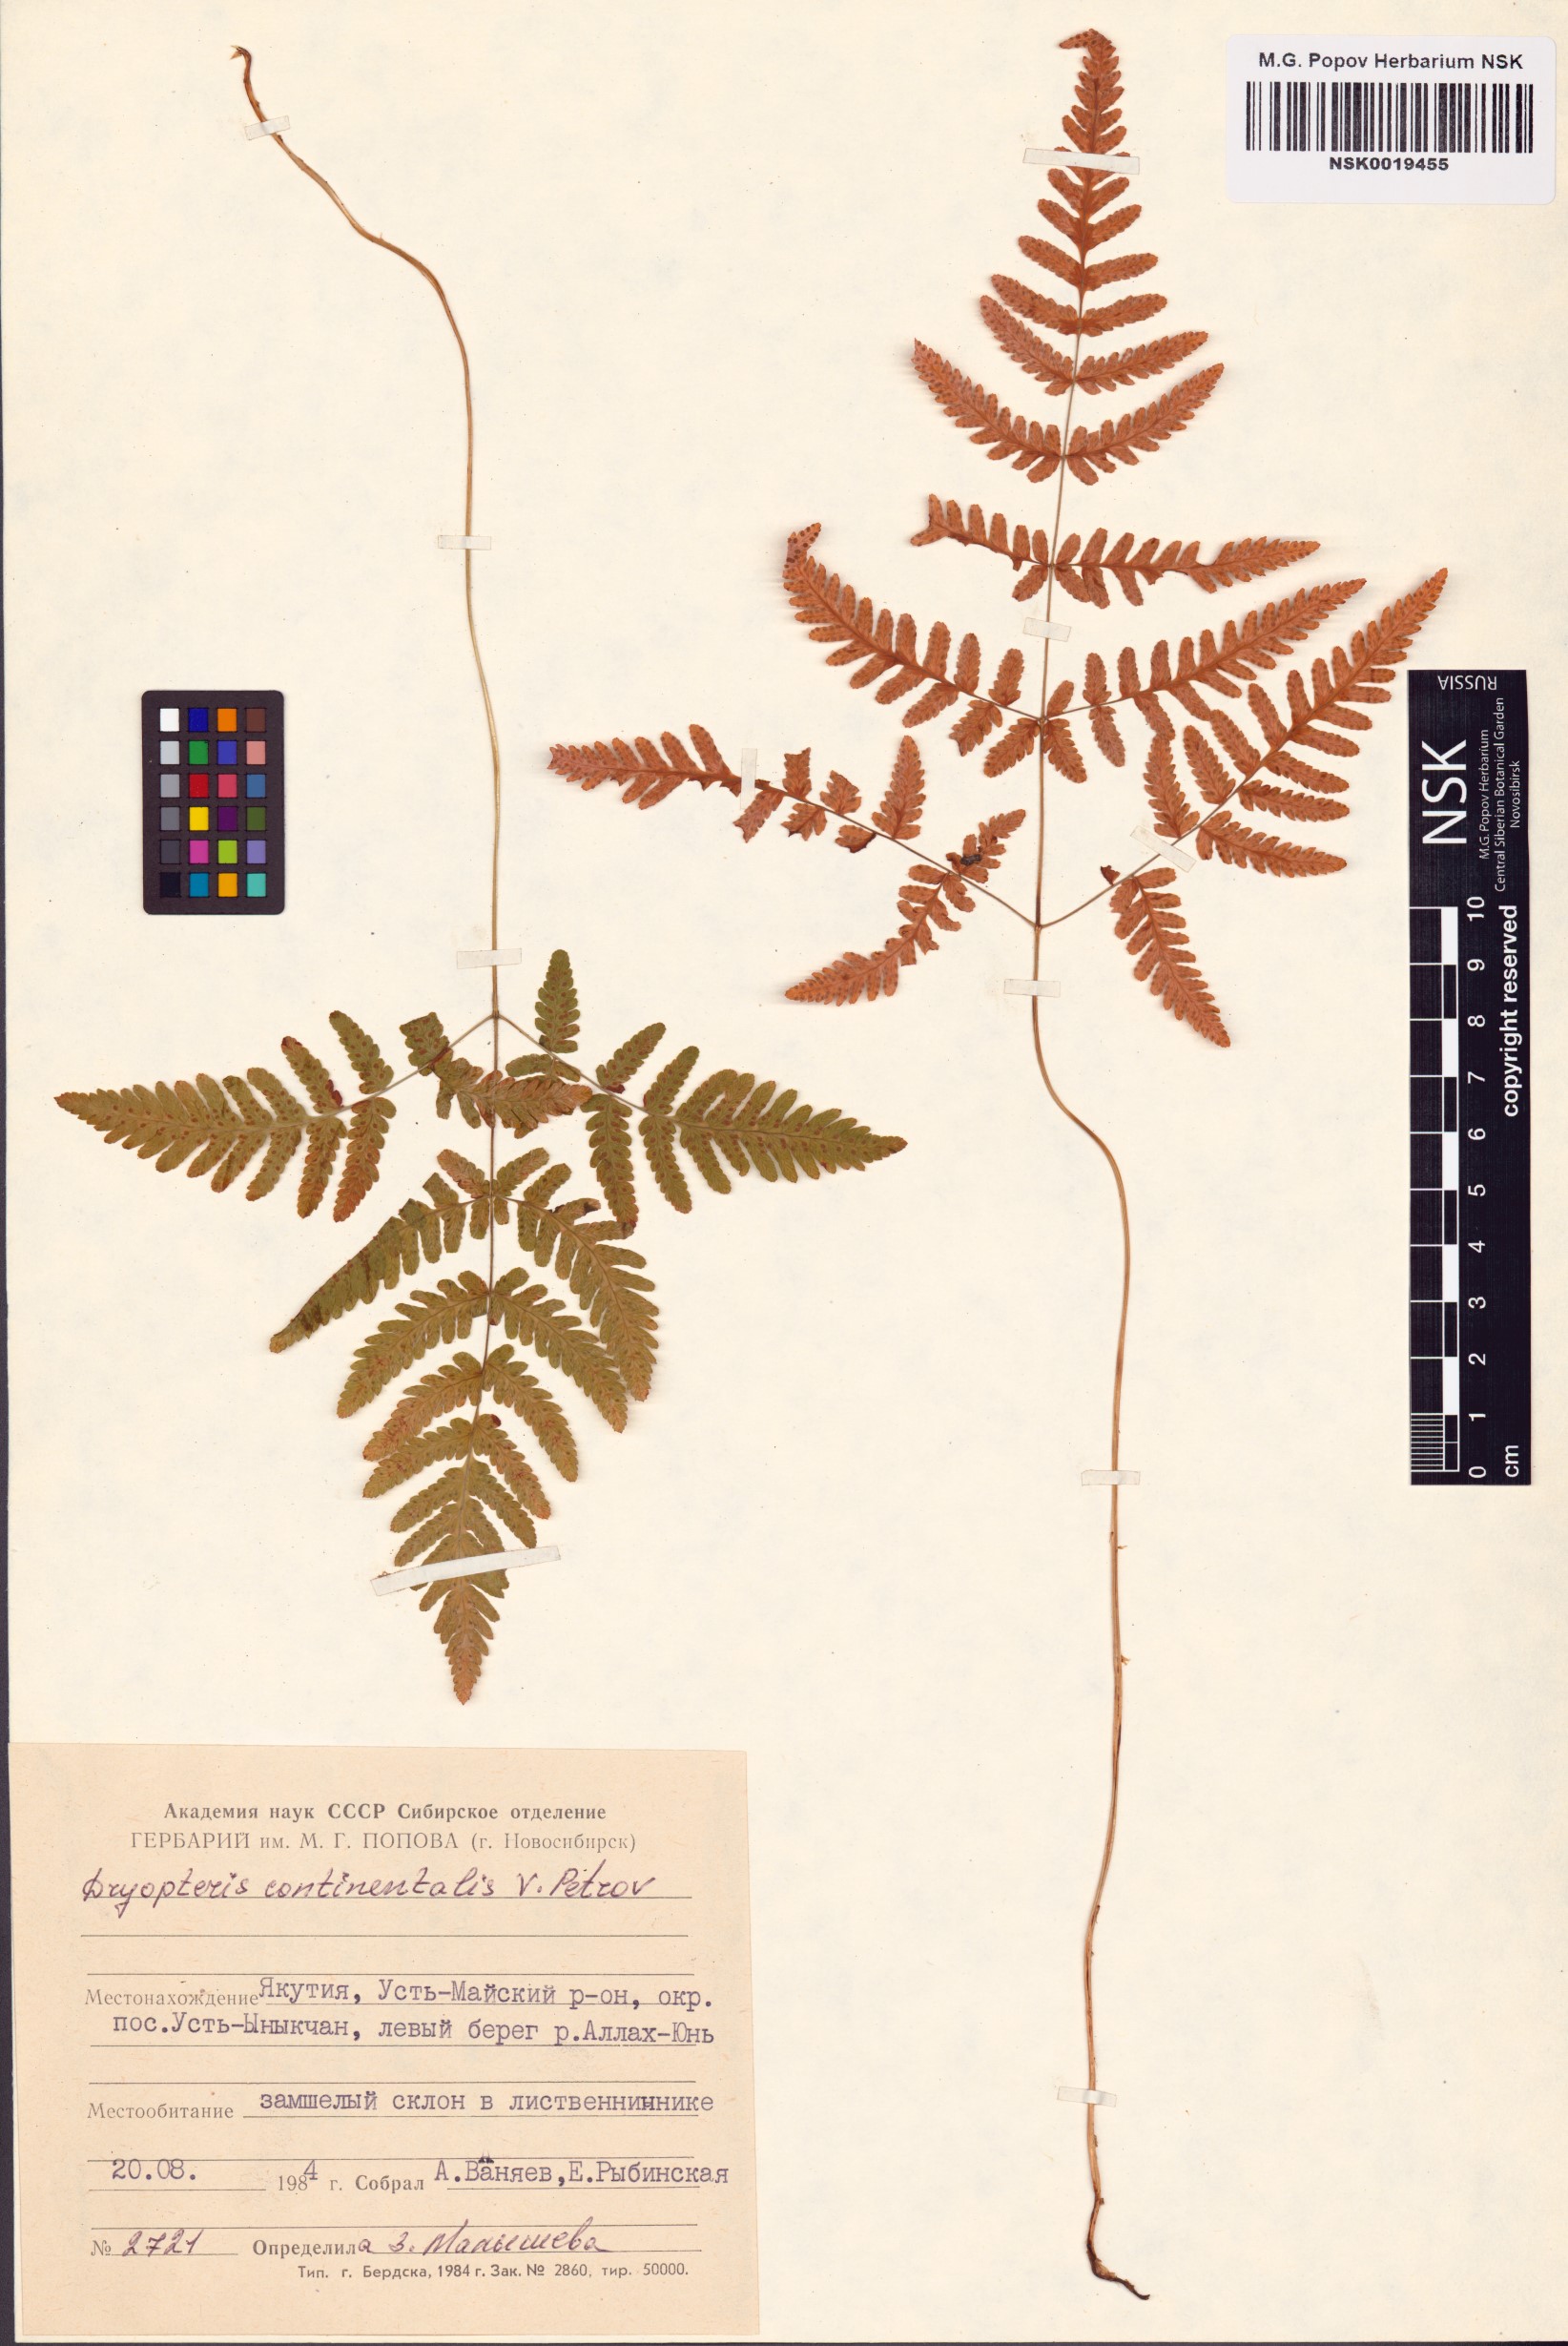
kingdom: Plantae
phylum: Tracheophyta
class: Polypodiopsida
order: Polypodiales
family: Cystopteridaceae
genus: Gymnocarpium
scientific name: Gymnocarpium continentale
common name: Asian oak fern
